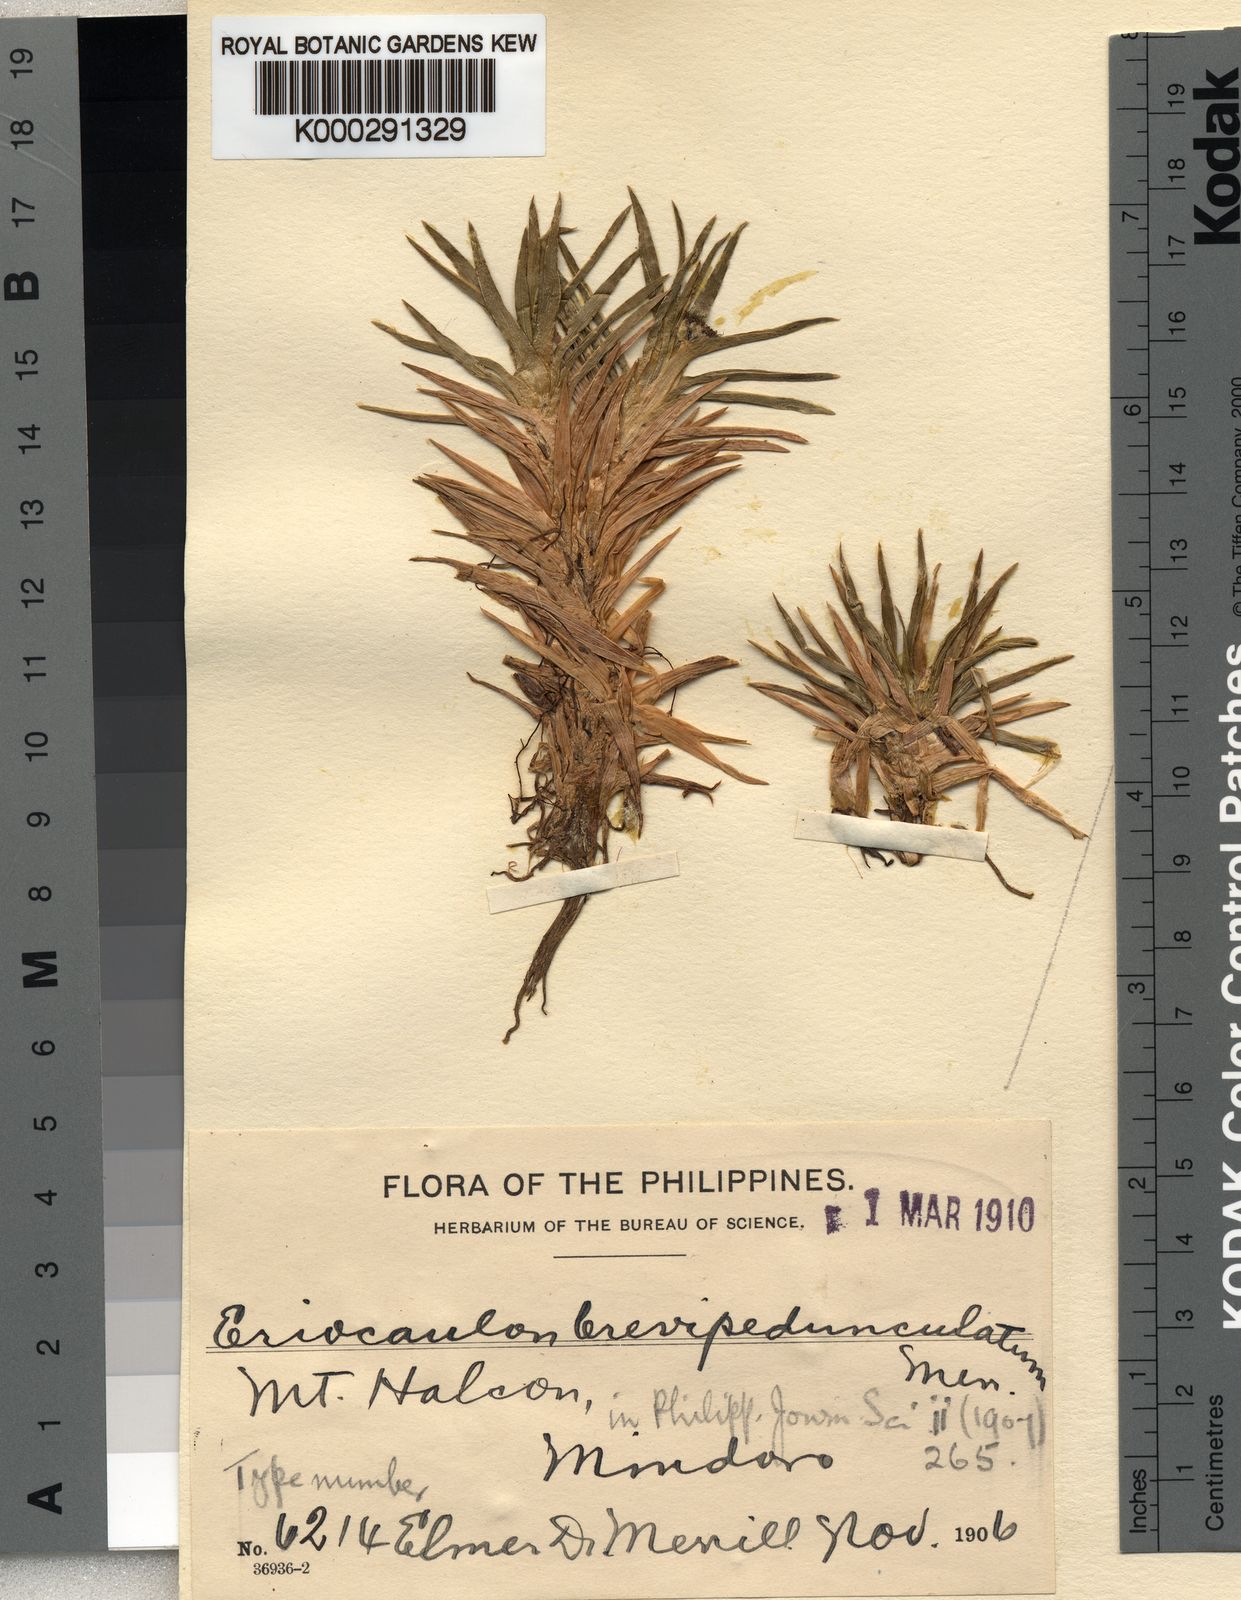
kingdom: Plantae
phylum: Tracheophyta
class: Liliopsida
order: Poales
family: Eriocaulaceae
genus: Eriocaulon
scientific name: Eriocaulon brevipedunculatum
